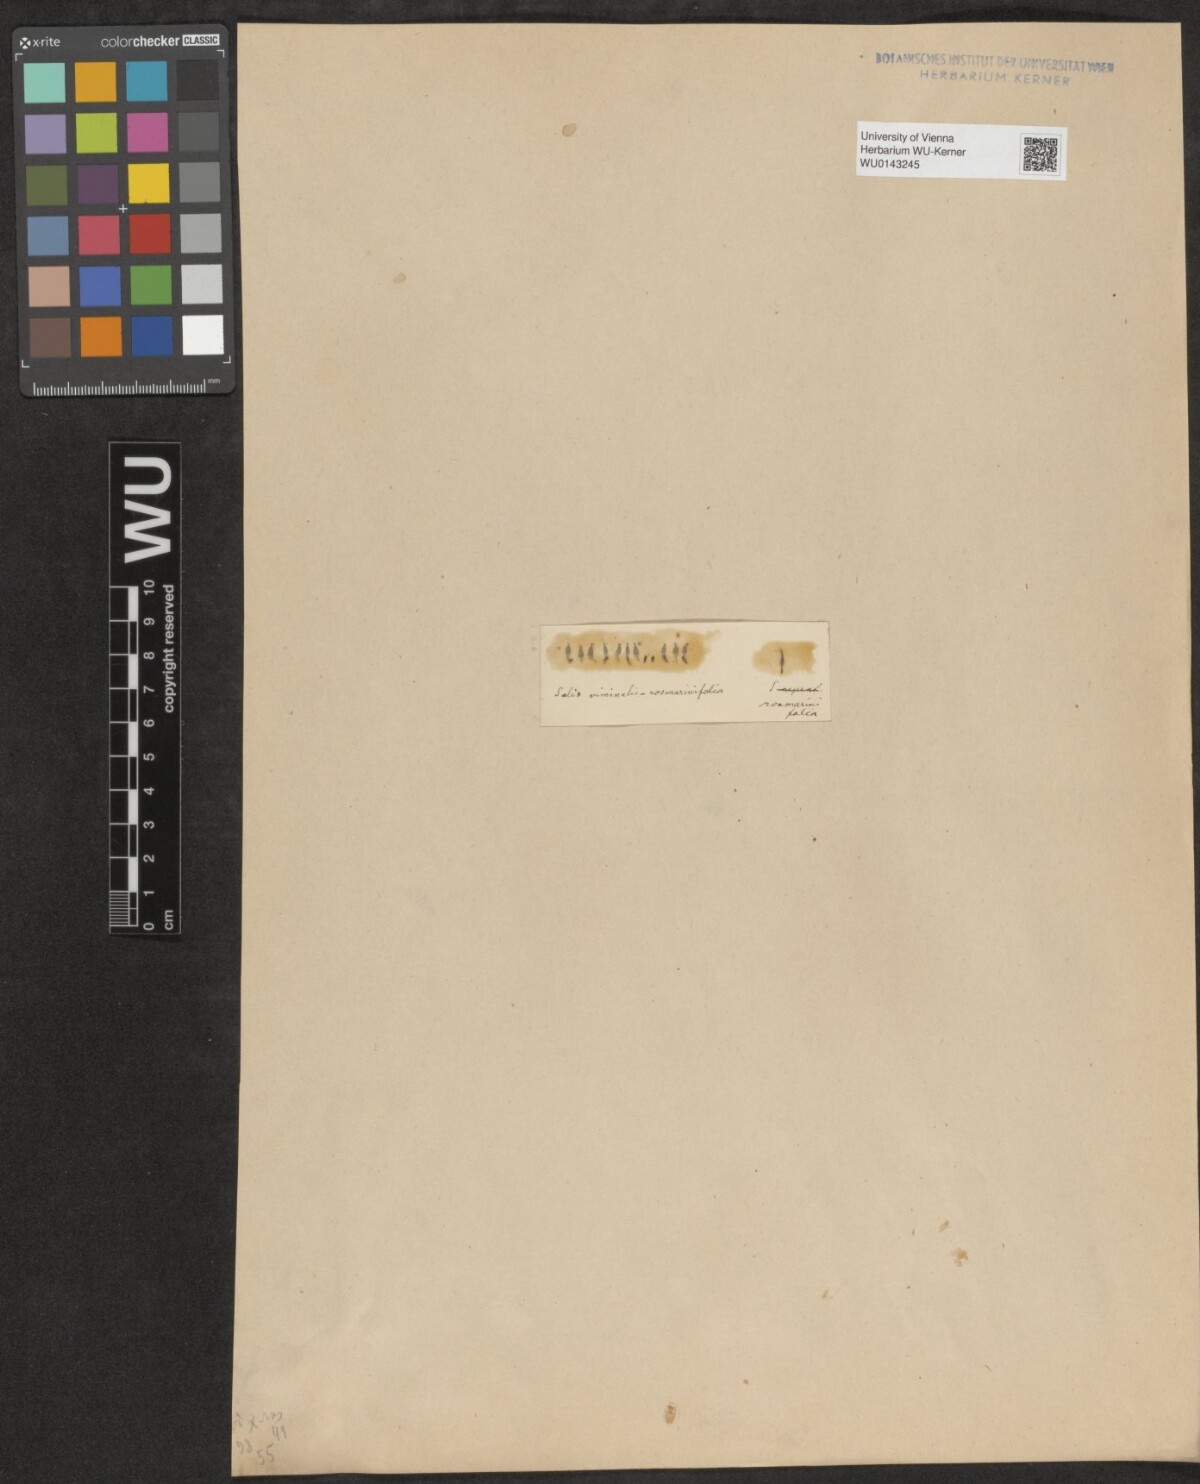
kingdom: Plantae
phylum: Tracheophyta
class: Magnoliopsida
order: Malpighiales
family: Salicaceae
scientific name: Salicaceae
